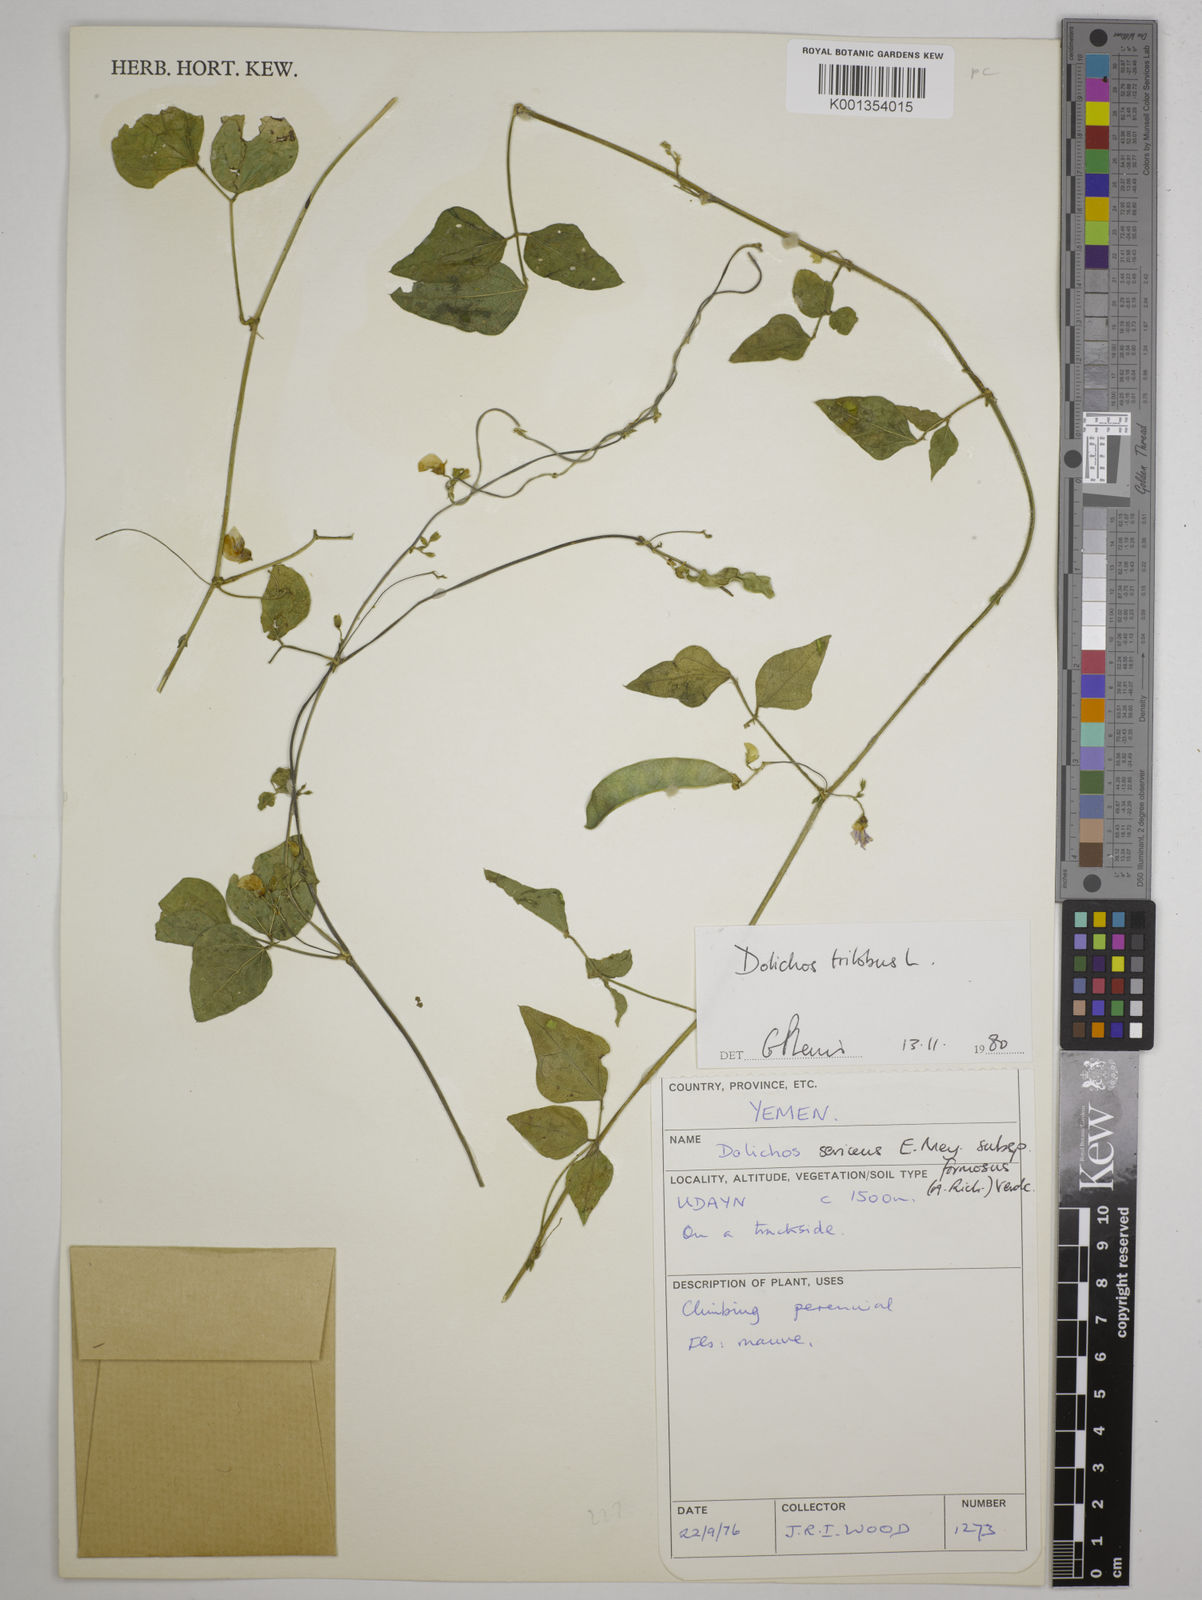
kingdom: Plantae
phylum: Tracheophyta
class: Magnoliopsida
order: Fabales
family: Fabaceae
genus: Dolichos
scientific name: Dolichos
